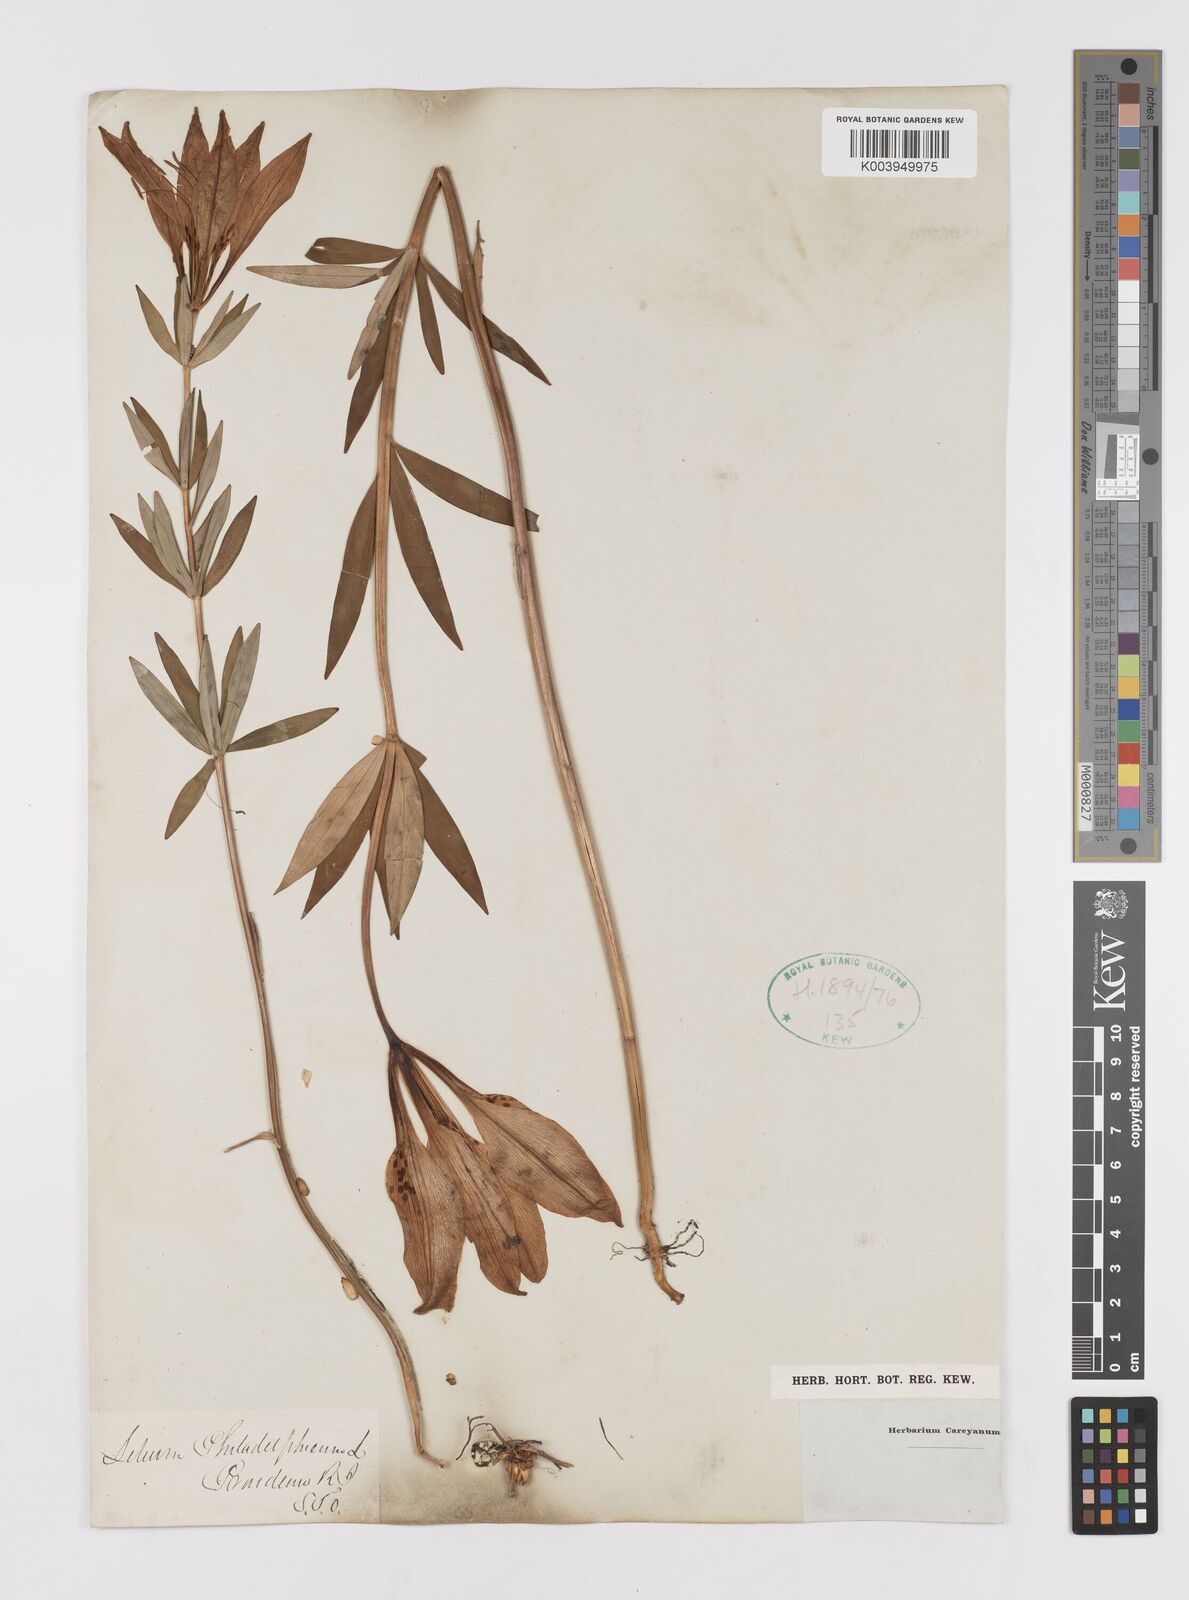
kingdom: Plantae
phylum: Tracheophyta
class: Liliopsida
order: Liliales
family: Liliaceae
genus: Lilium
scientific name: Lilium philadelphicum
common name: Red lily
